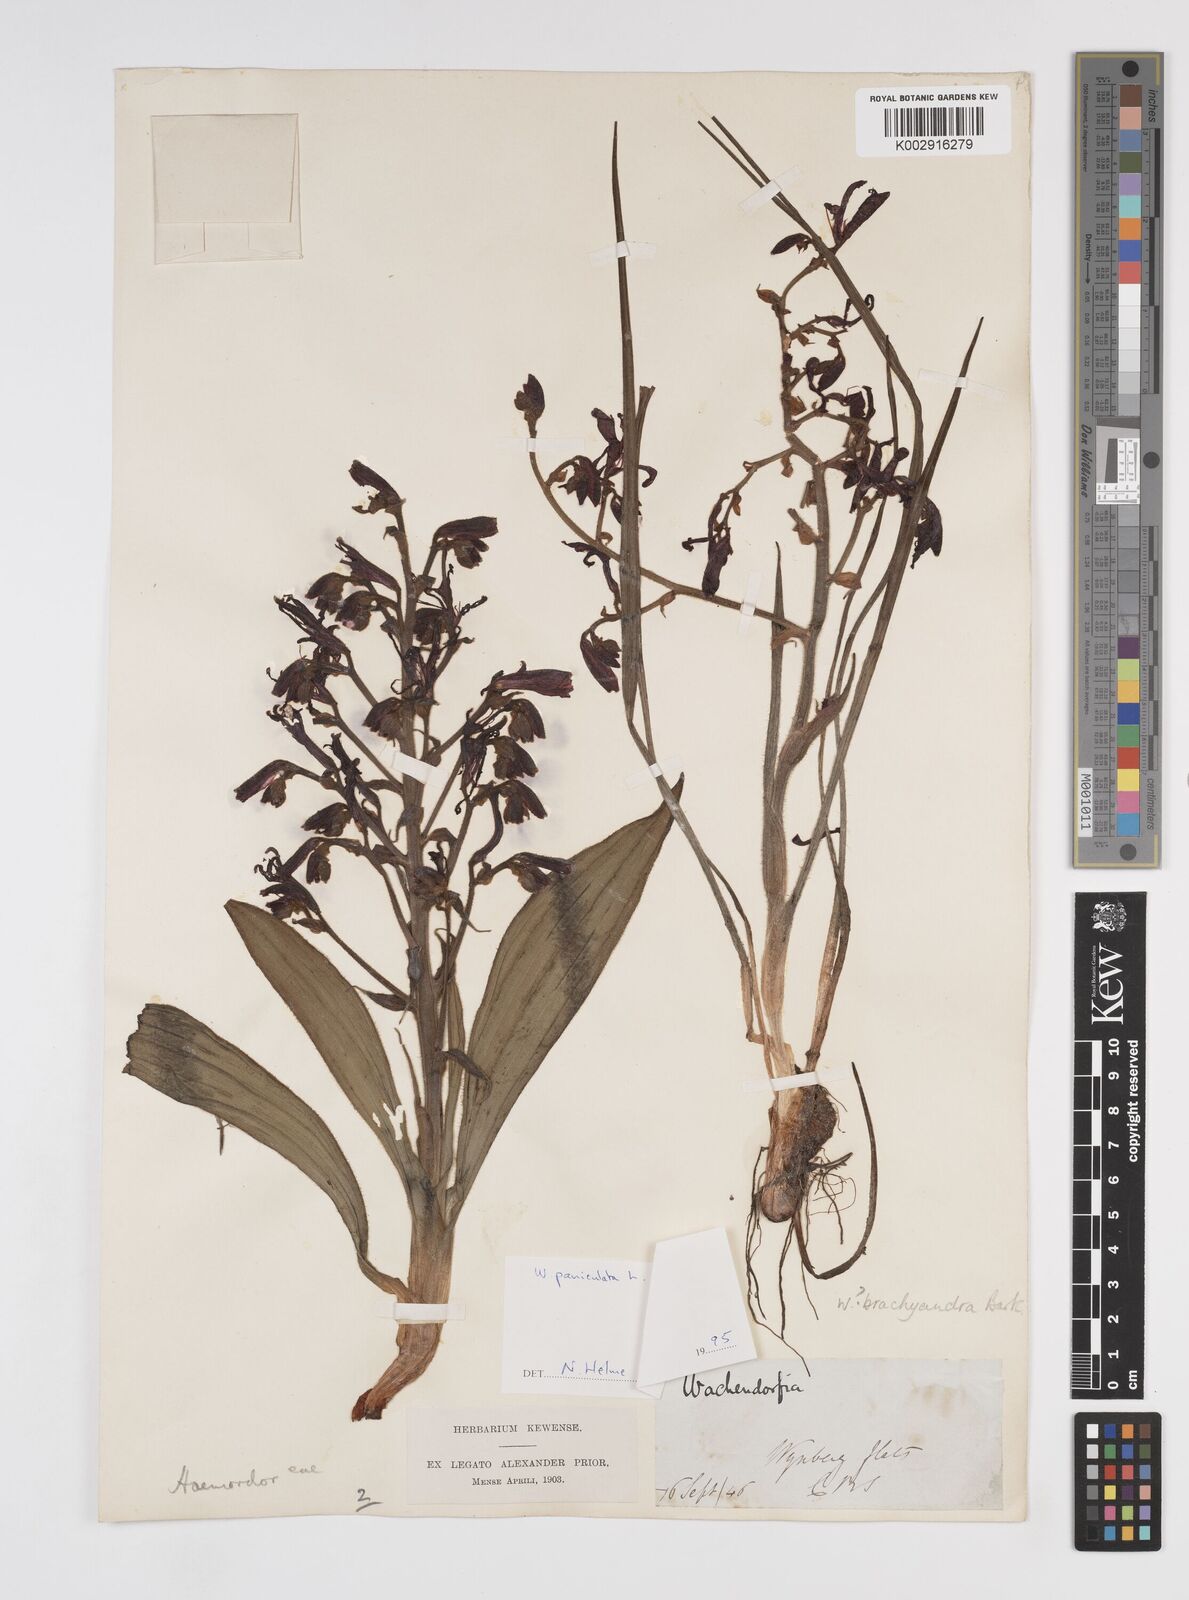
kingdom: Plantae
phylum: Tracheophyta
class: Liliopsida
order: Commelinales
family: Haemodoraceae
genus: Wachendorfia
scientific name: Wachendorfia paniculata
